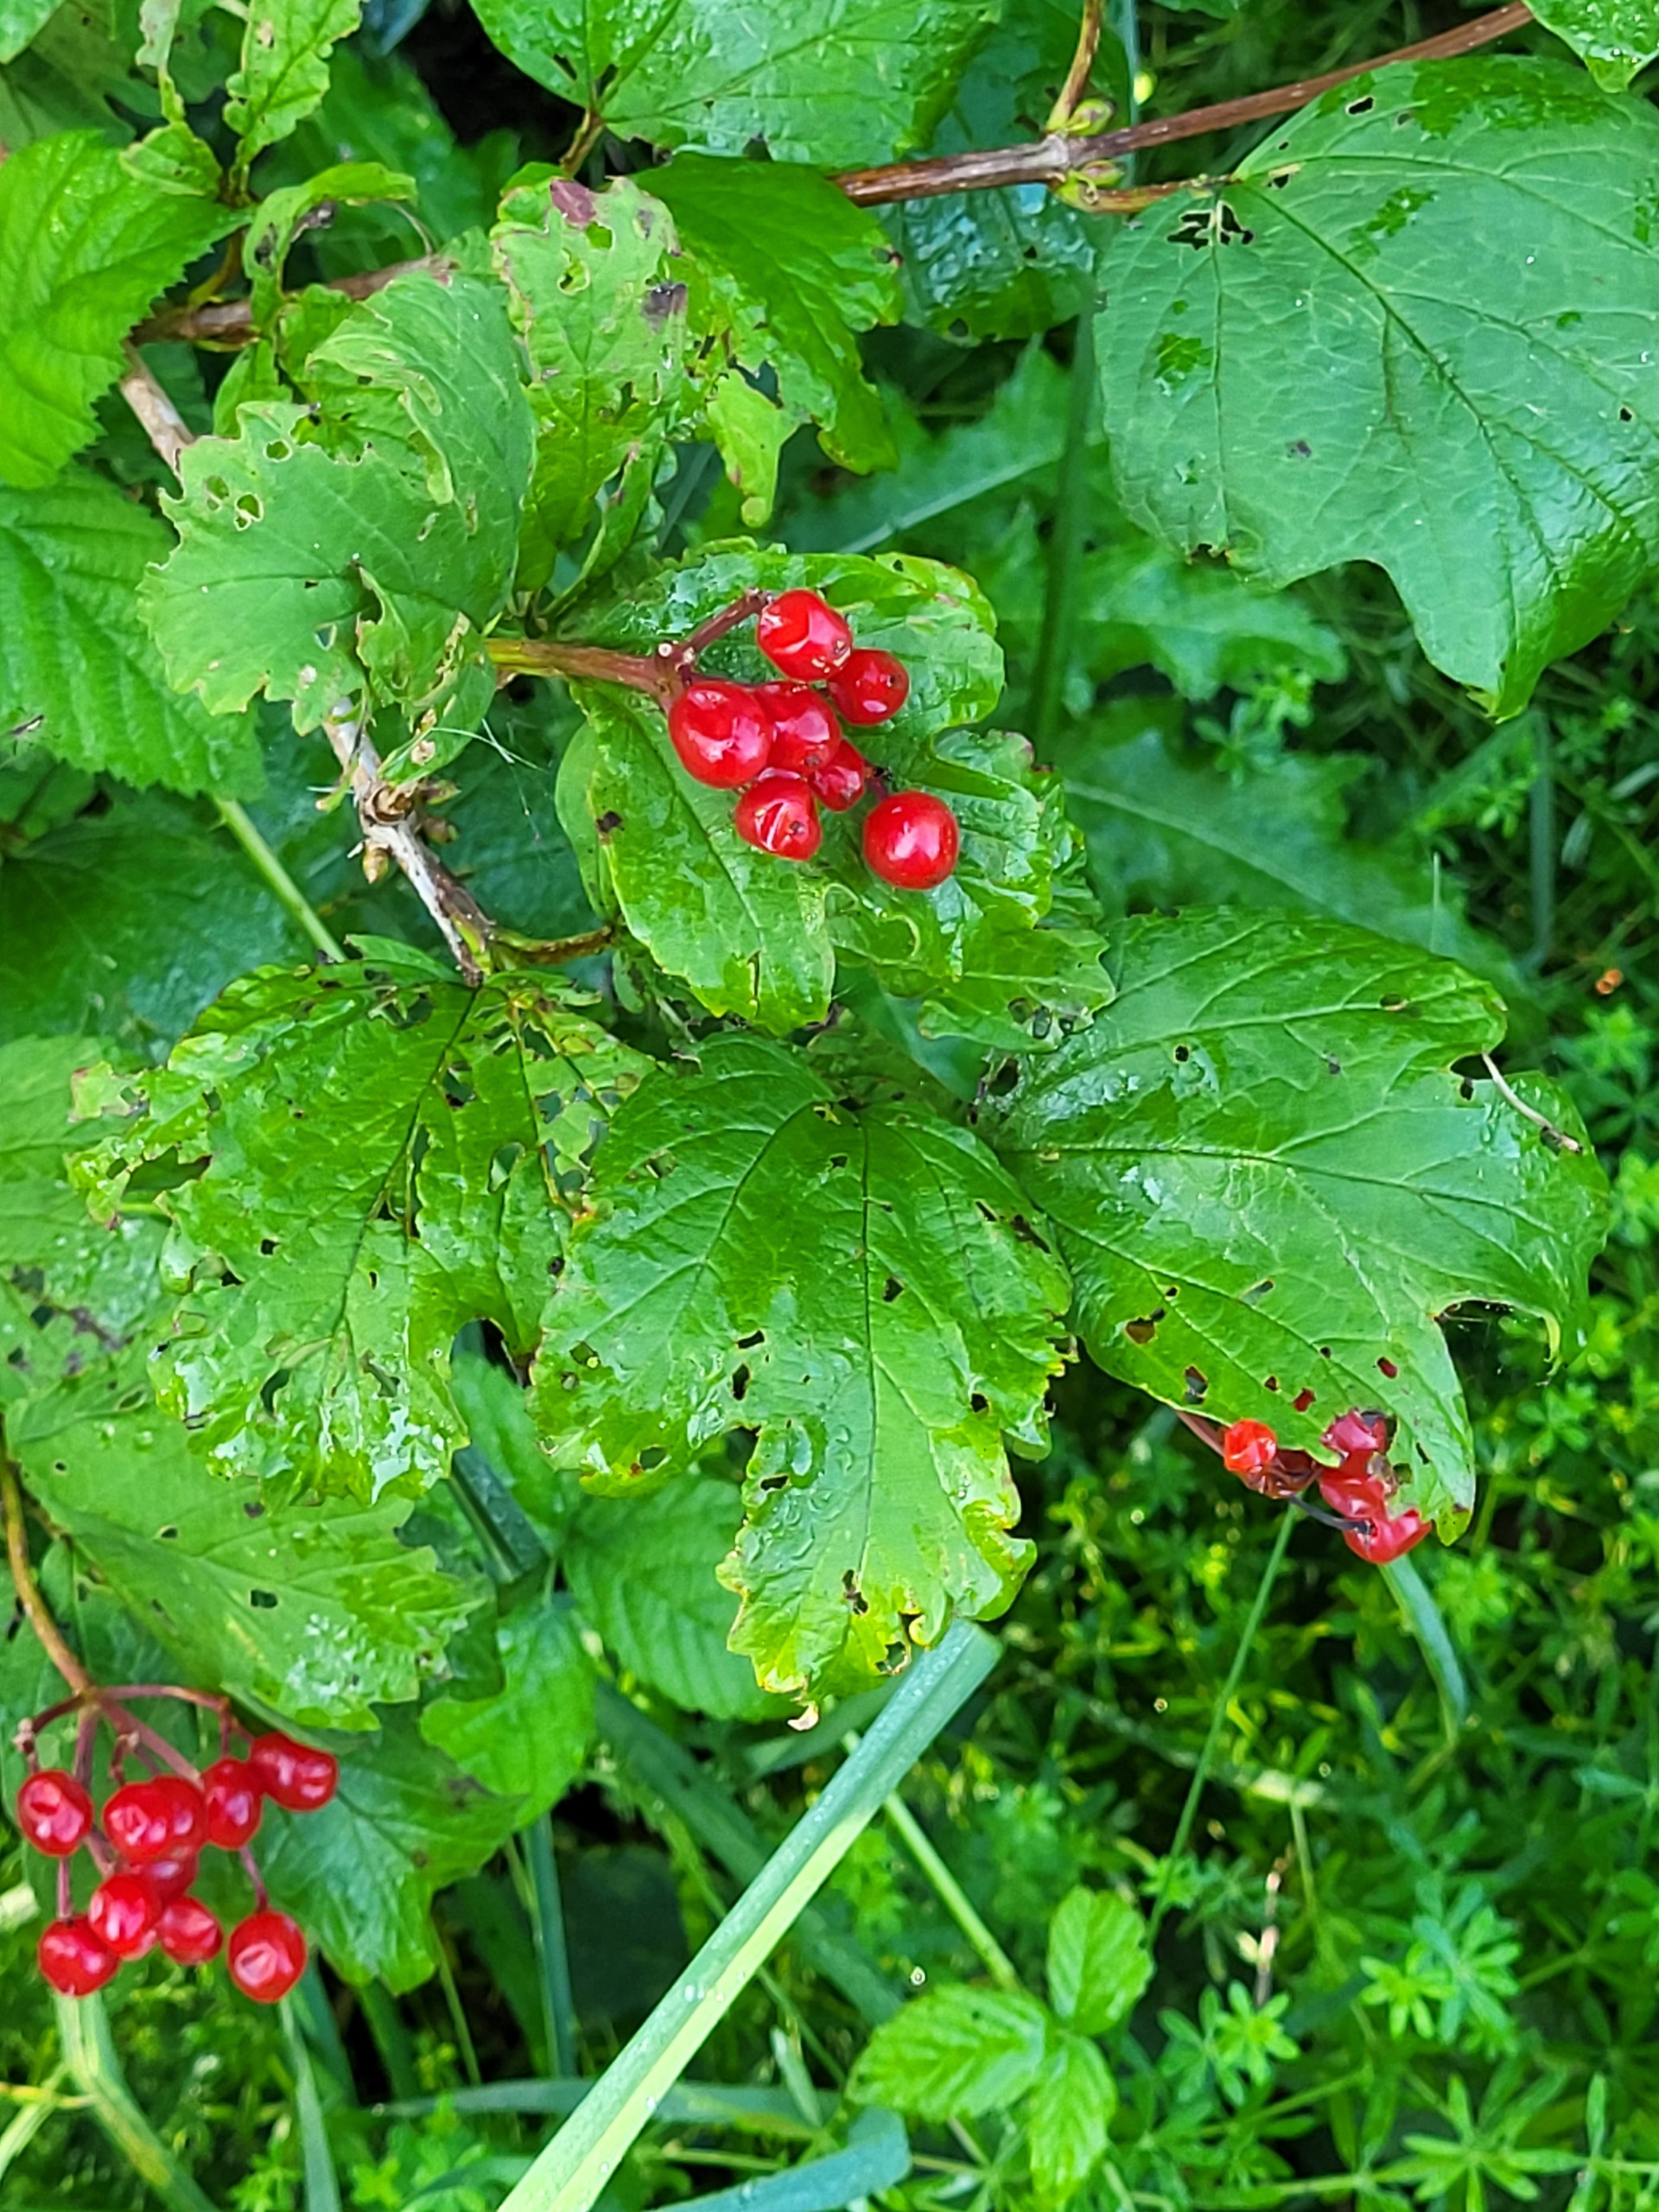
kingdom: Plantae
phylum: Tracheophyta
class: Magnoliopsida
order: Dipsacales
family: Viburnaceae
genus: Viburnum
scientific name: Viburnum opulus
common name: Kvalkved
